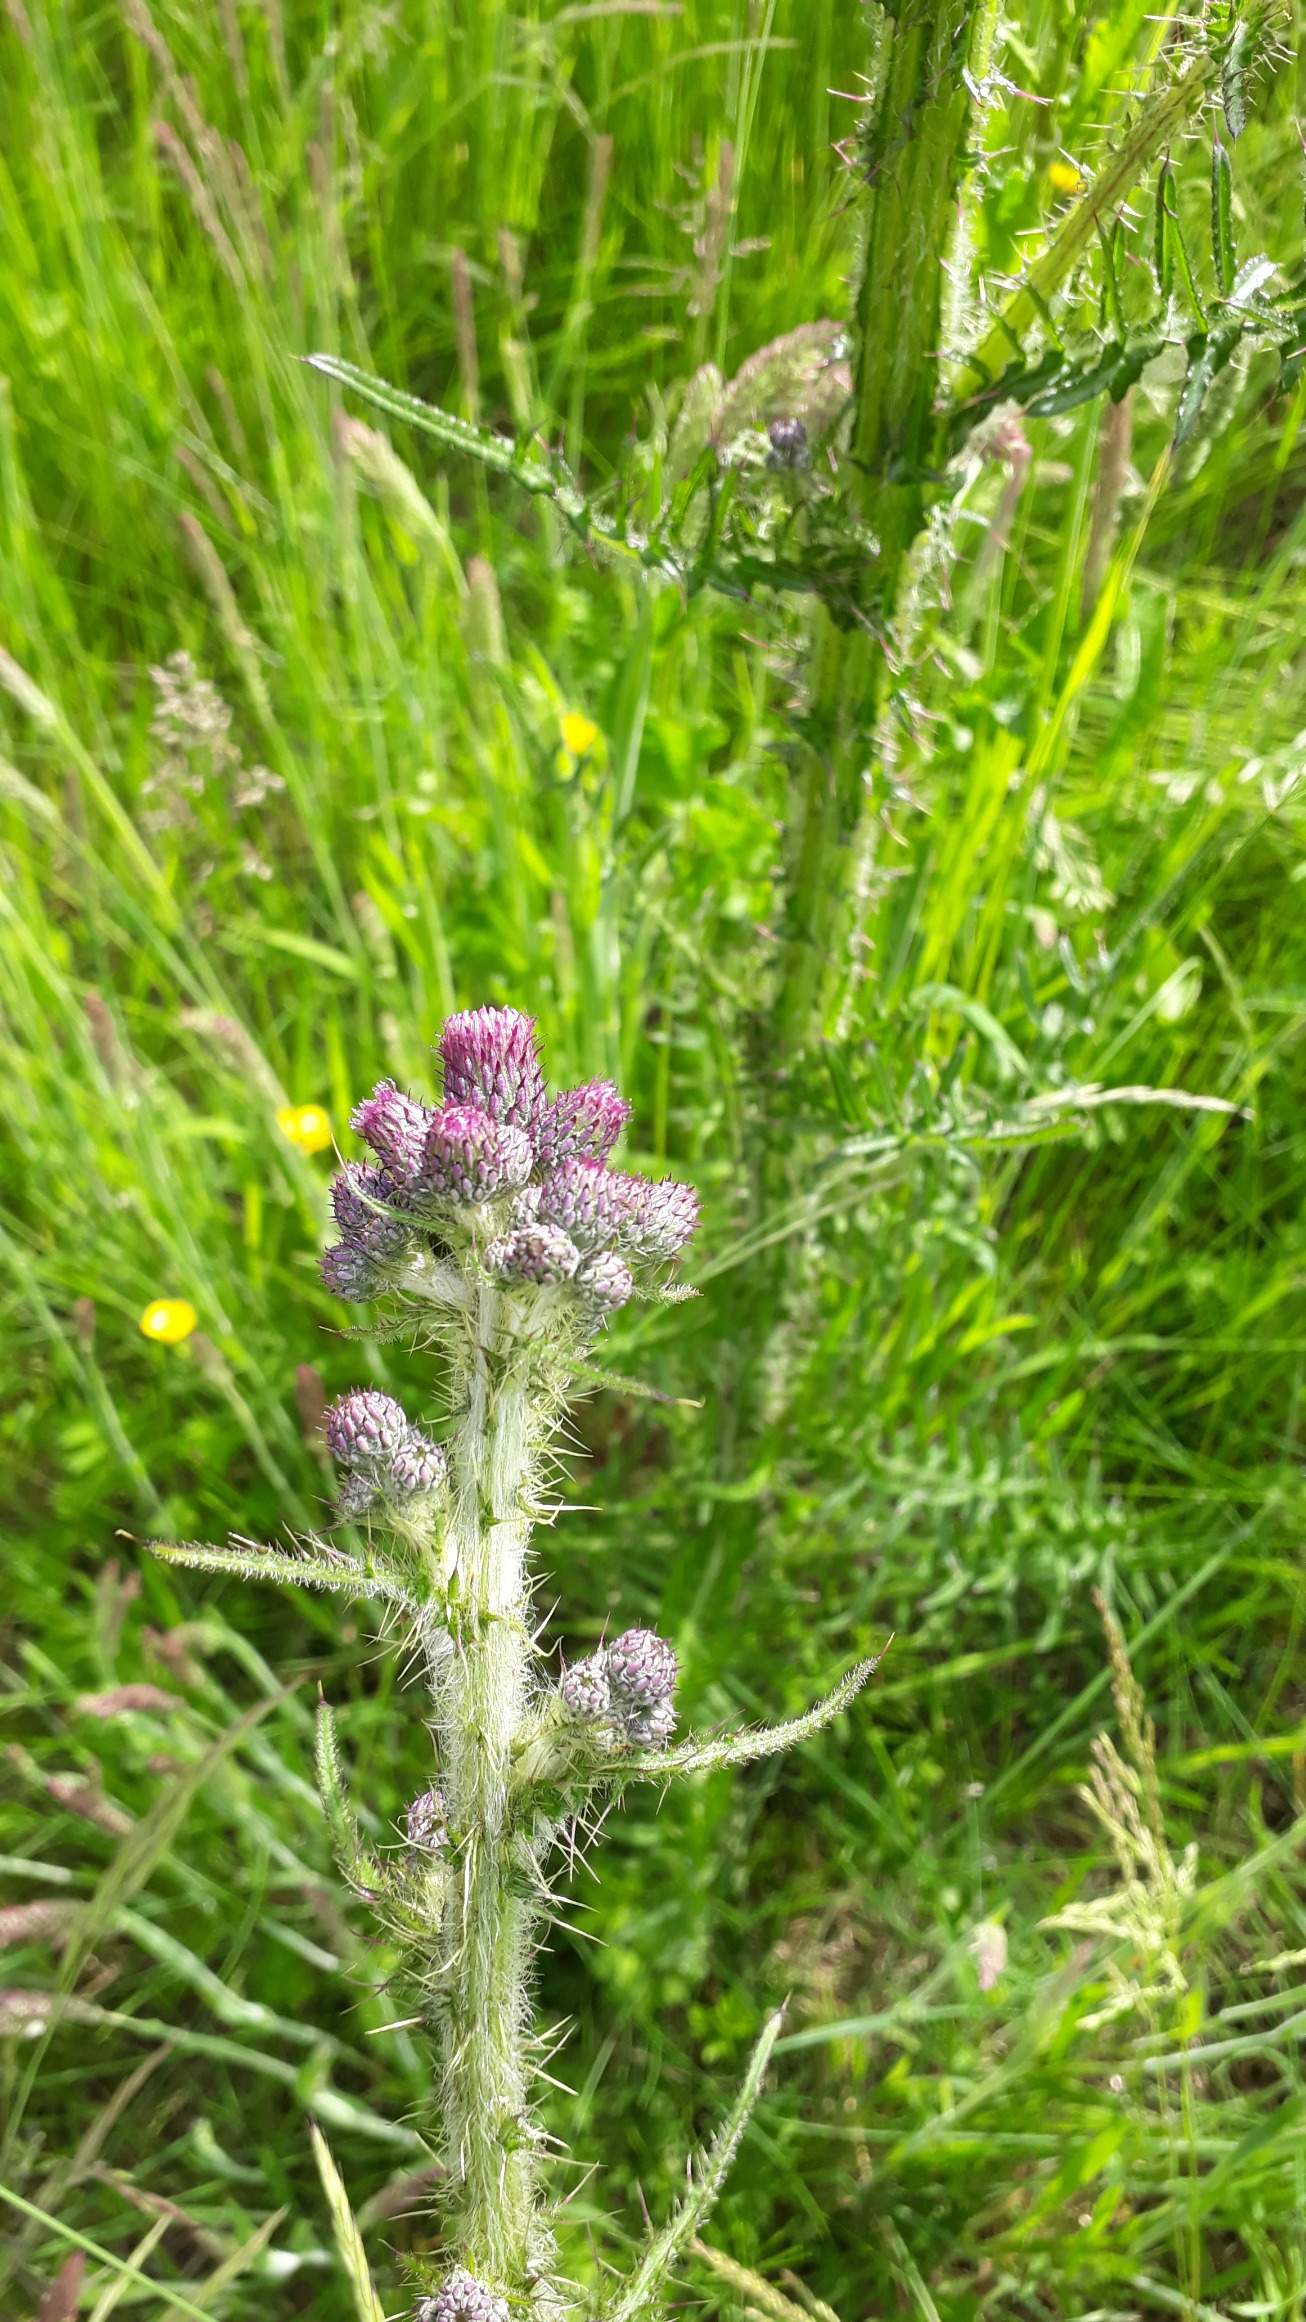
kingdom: Plantae
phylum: Tracheophyta
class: Magnoliopsida
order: Asterales
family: Asteraceae
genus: Cirsium
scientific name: Cirsium palustre
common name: Kær-tidsel
